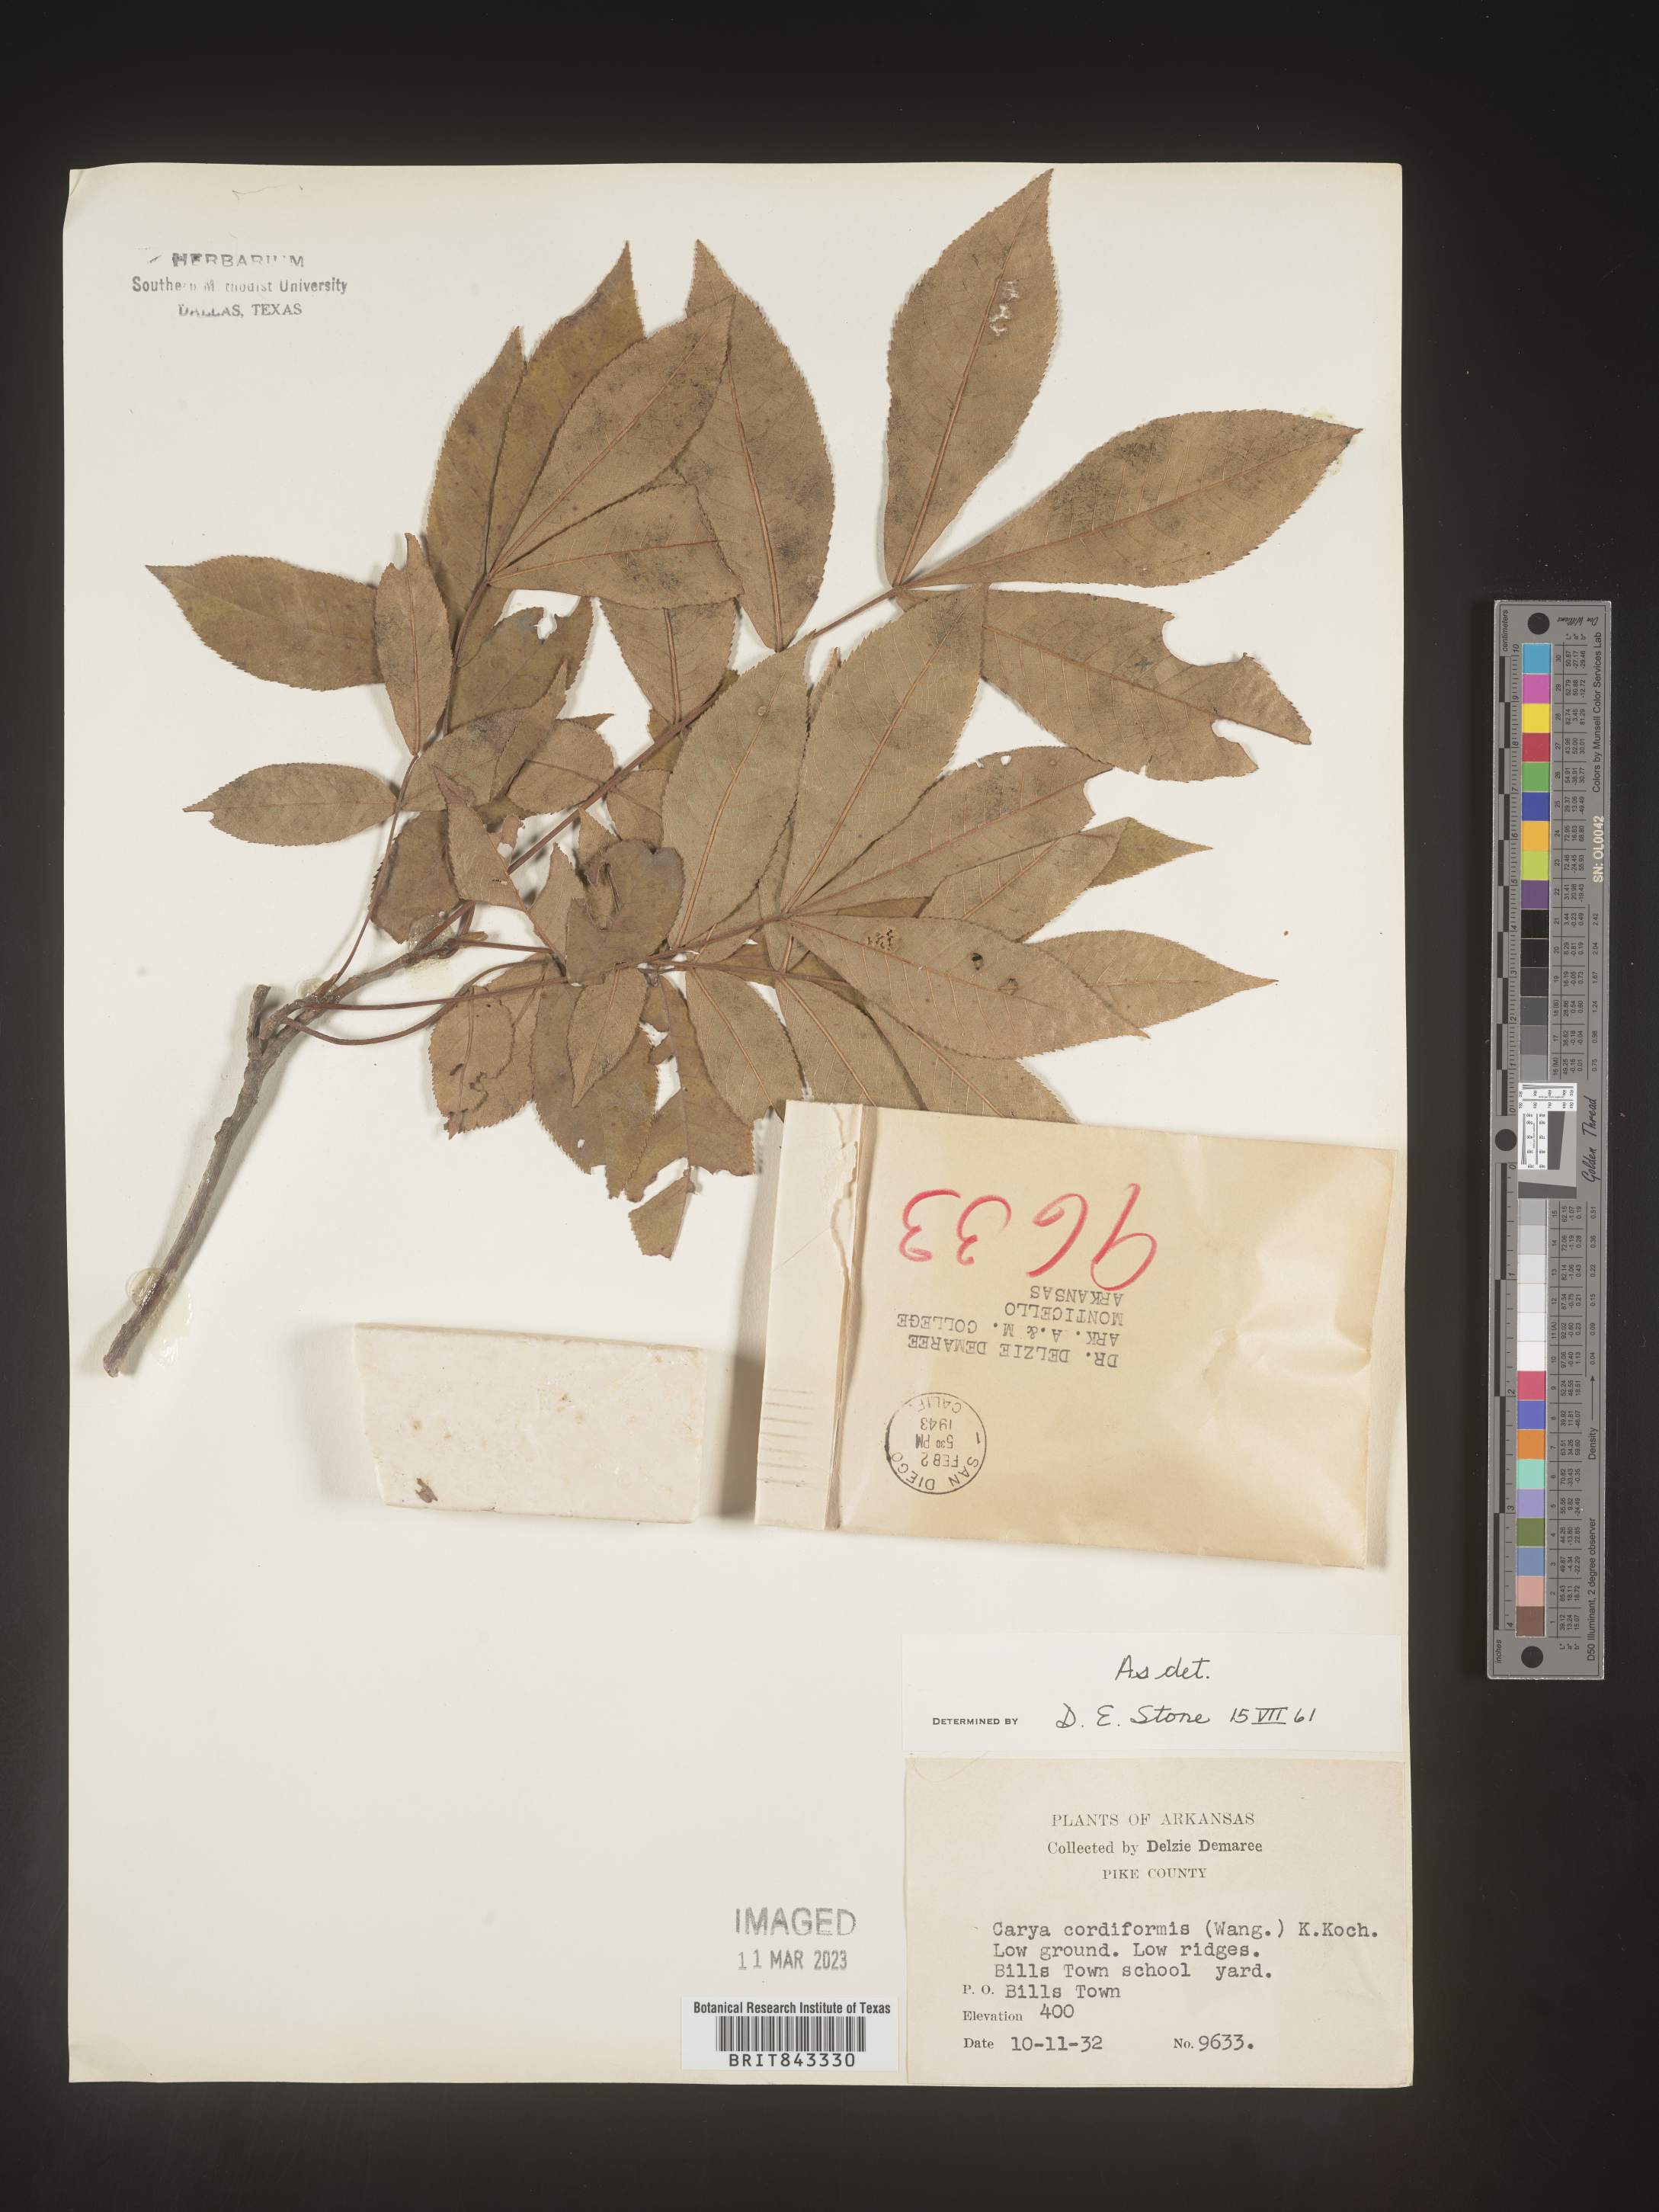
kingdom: Plantae
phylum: Tracheophyta
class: Magnoliopsida
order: Fagales
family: Juglandaceae
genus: Carya
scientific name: Carya cordiformis
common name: Bitternut hickory
